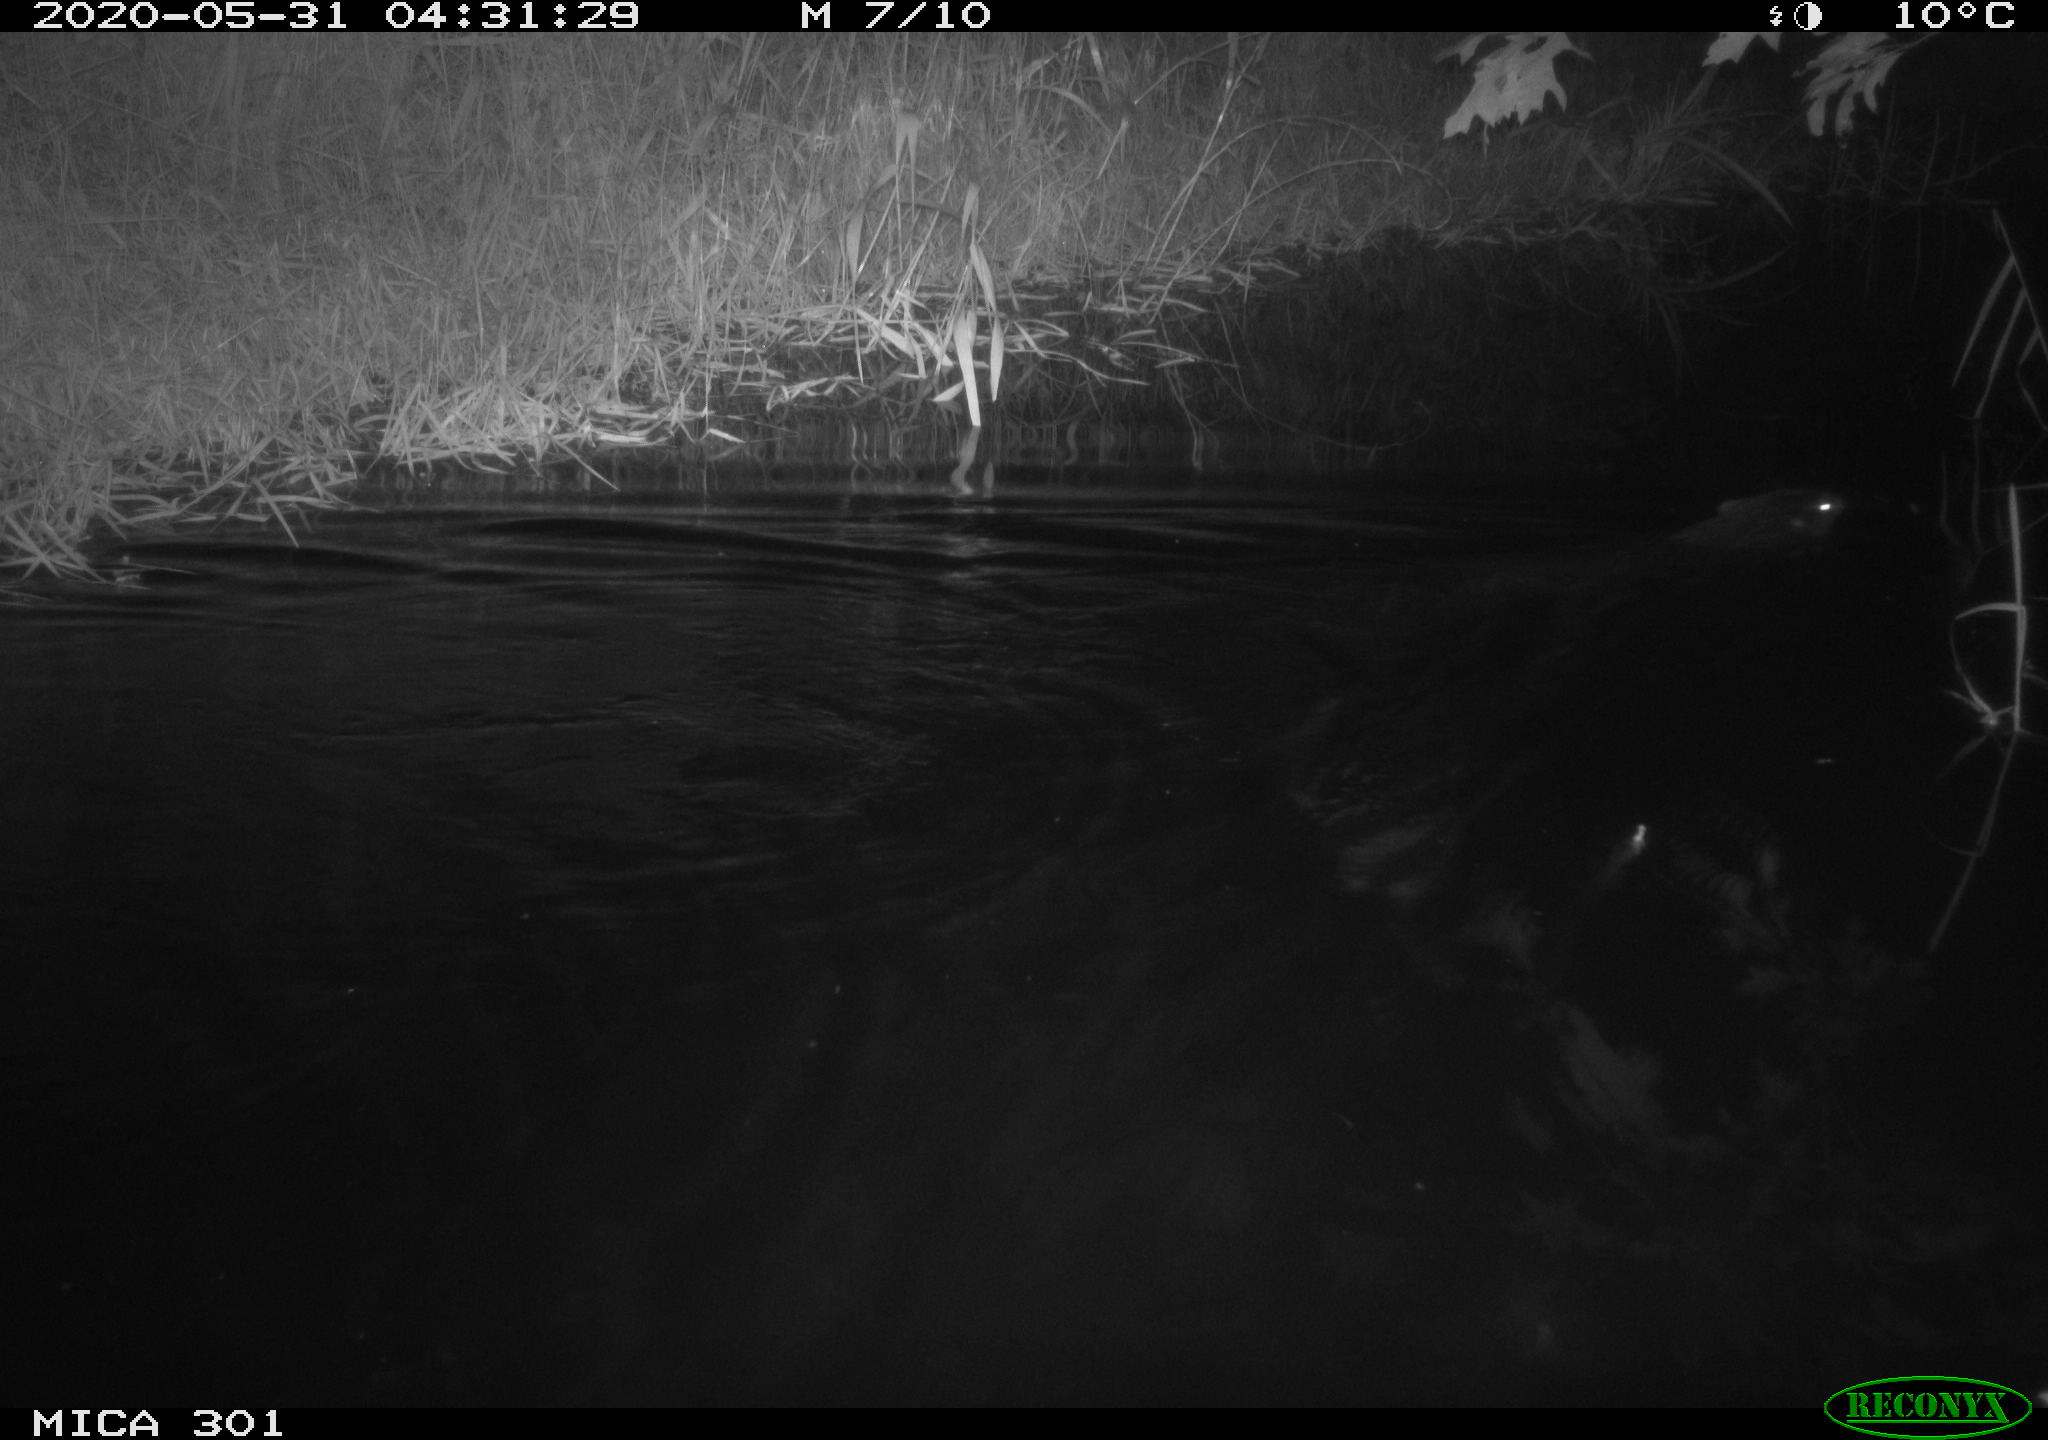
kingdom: Animalia
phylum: Chordata
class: Mammalia
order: Rodentia
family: Castoridae
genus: Castor
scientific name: Castor fiber
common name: Eurasian beaver
